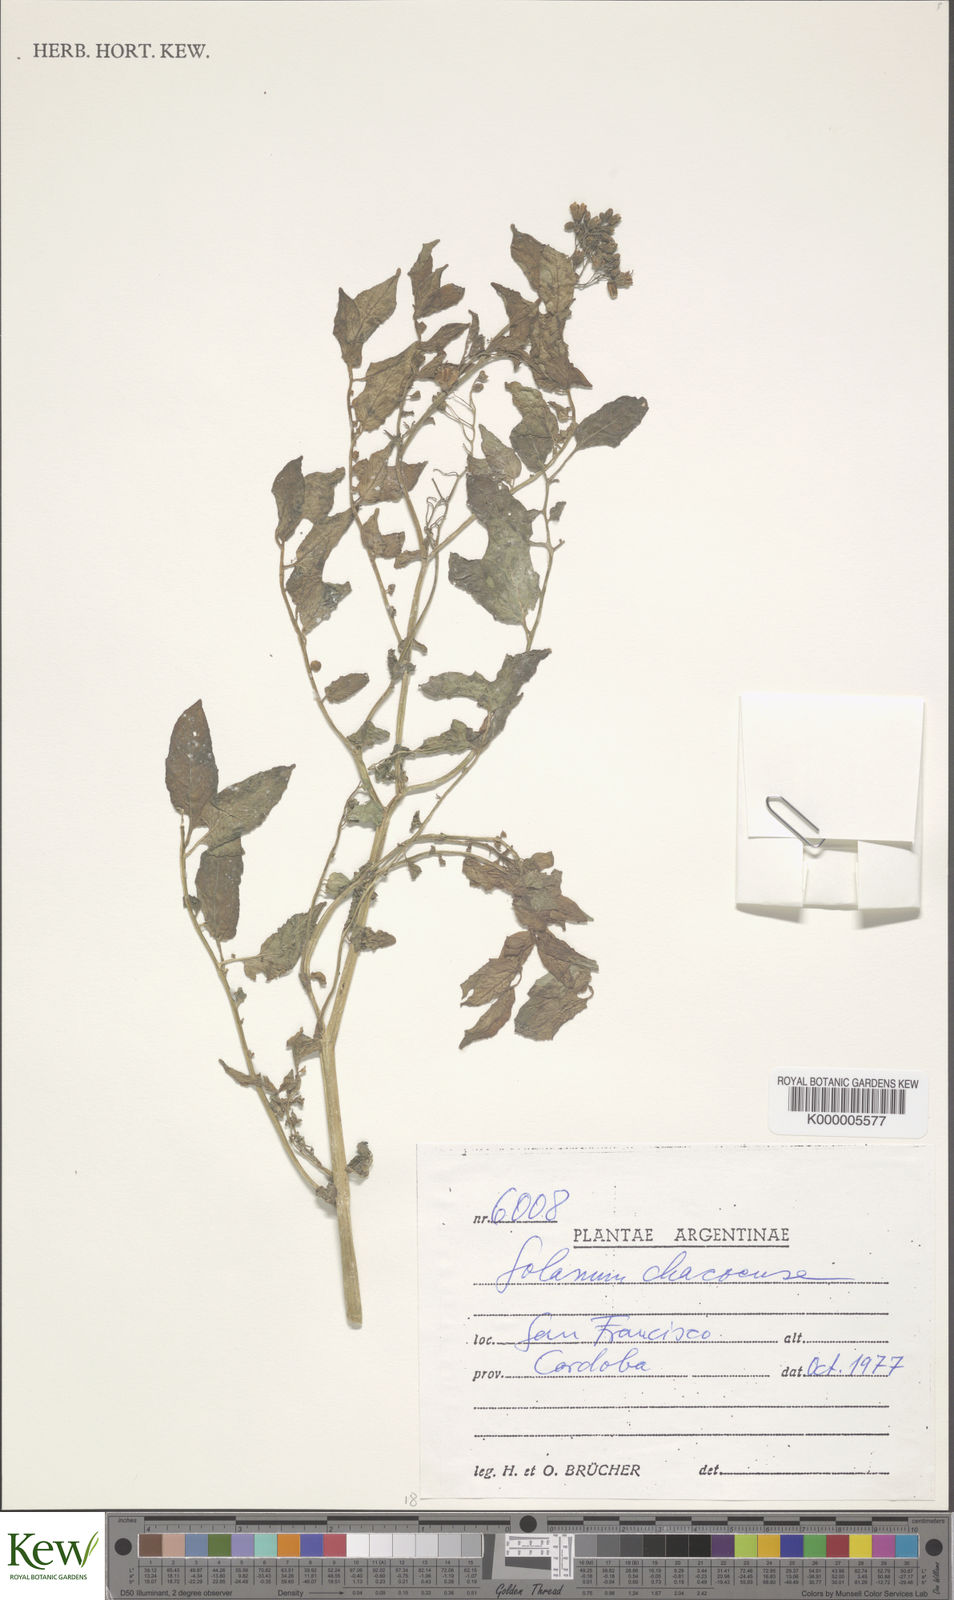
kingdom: Plantae
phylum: Tracheophyta
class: Magnoliopsida
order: Solanales
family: Solanaceae
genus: Solanum
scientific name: Solanum chacoense
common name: Chaco potato
